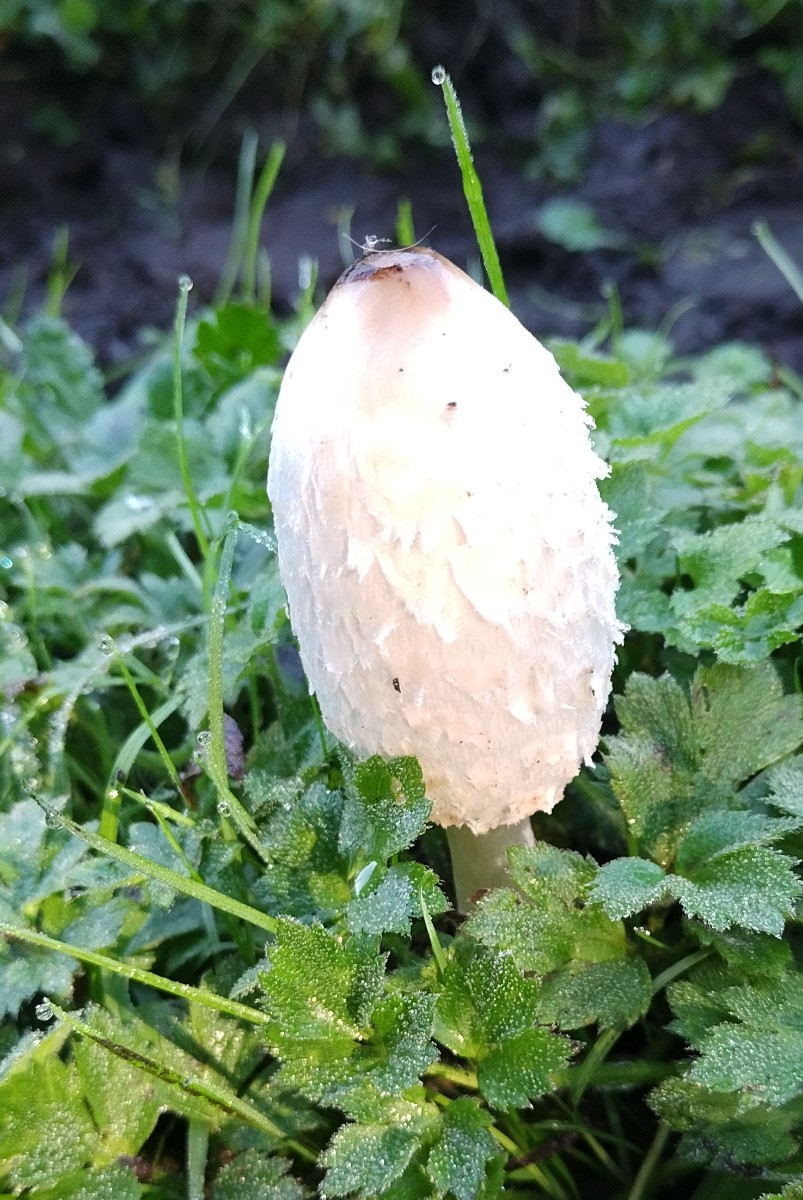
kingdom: Fungi
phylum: Basidiomycota
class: Agaricomycetes
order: Agaricales
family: Agaricaceae
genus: Coprinus
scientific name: Coprinus comatus
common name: stor parykhat
